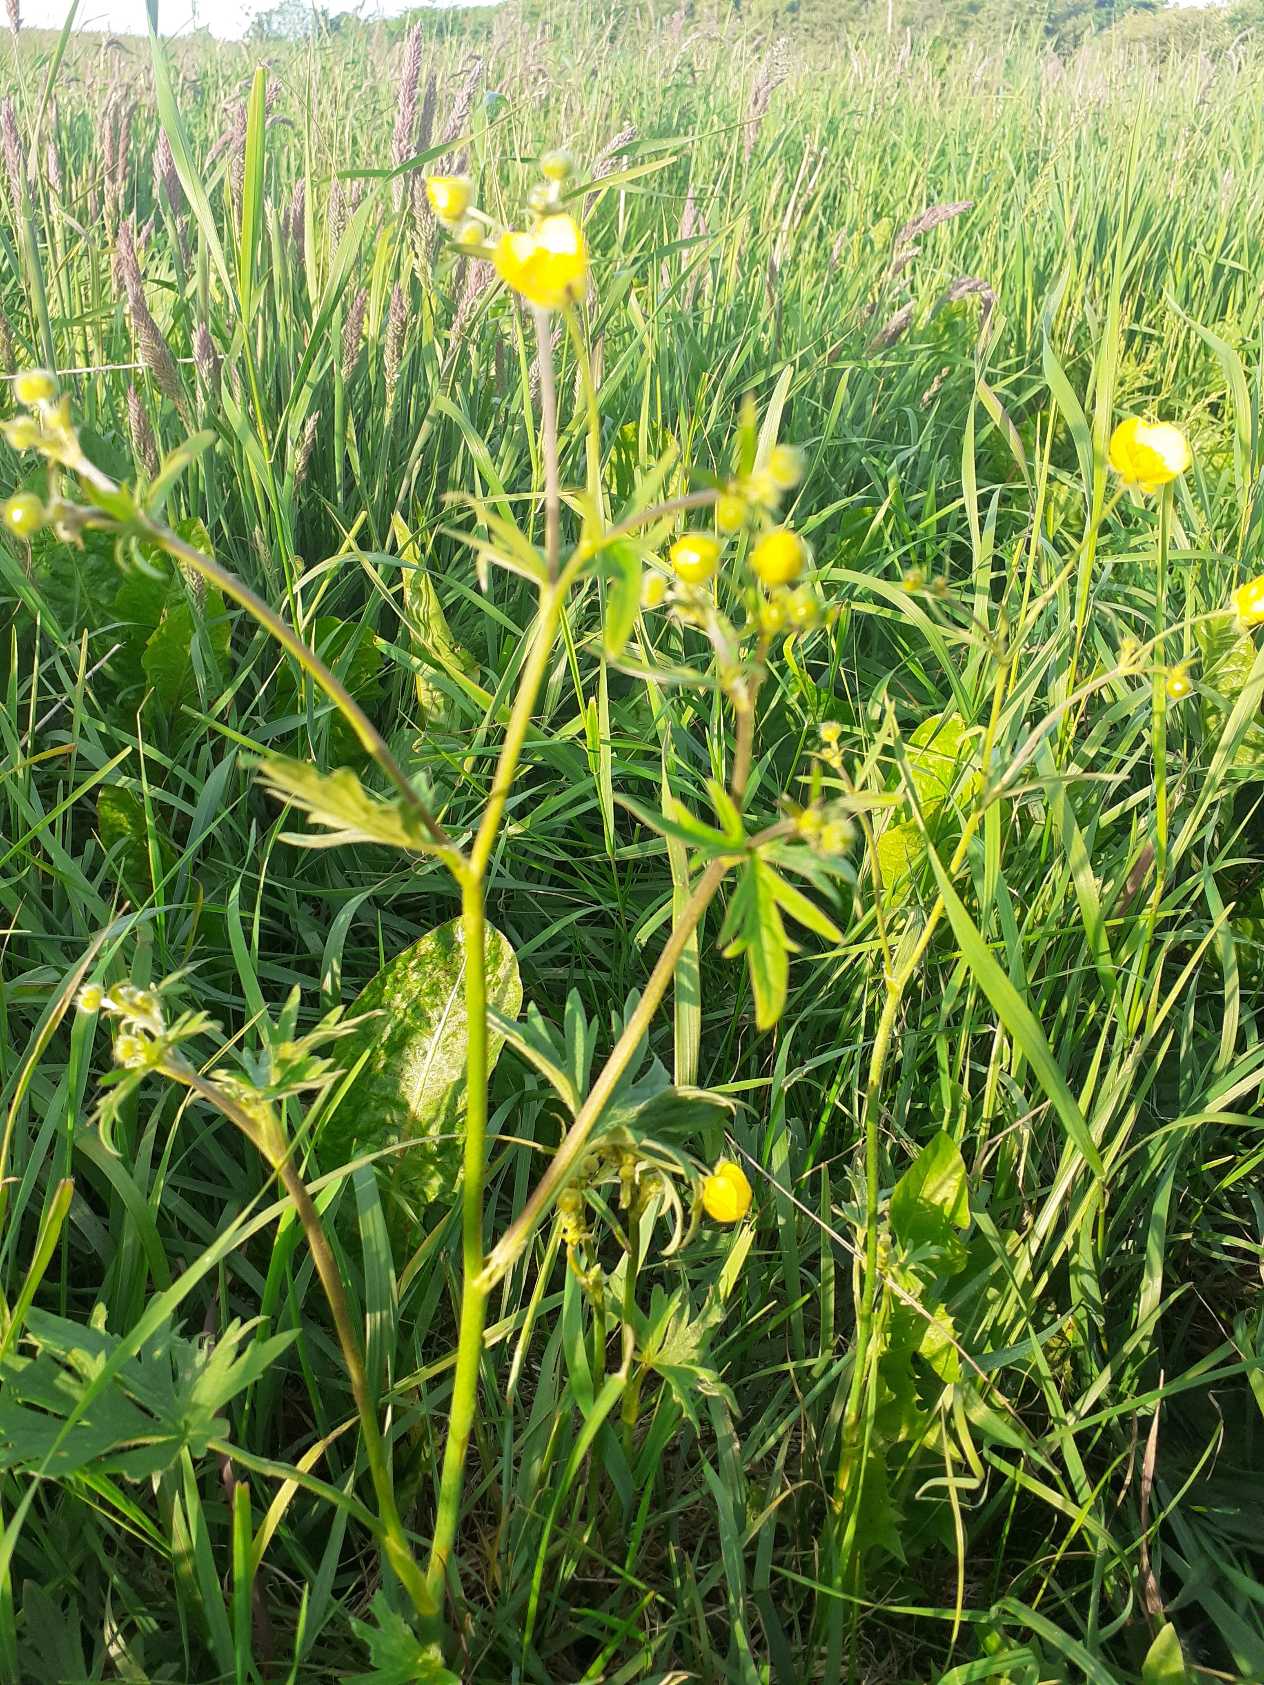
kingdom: Plantae
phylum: Tracheophyta
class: Magnoliopsida
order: Ranunculales
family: Ranunculaceae
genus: Ranunculus
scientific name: Ranunculus acris
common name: Bidende ranunkel
